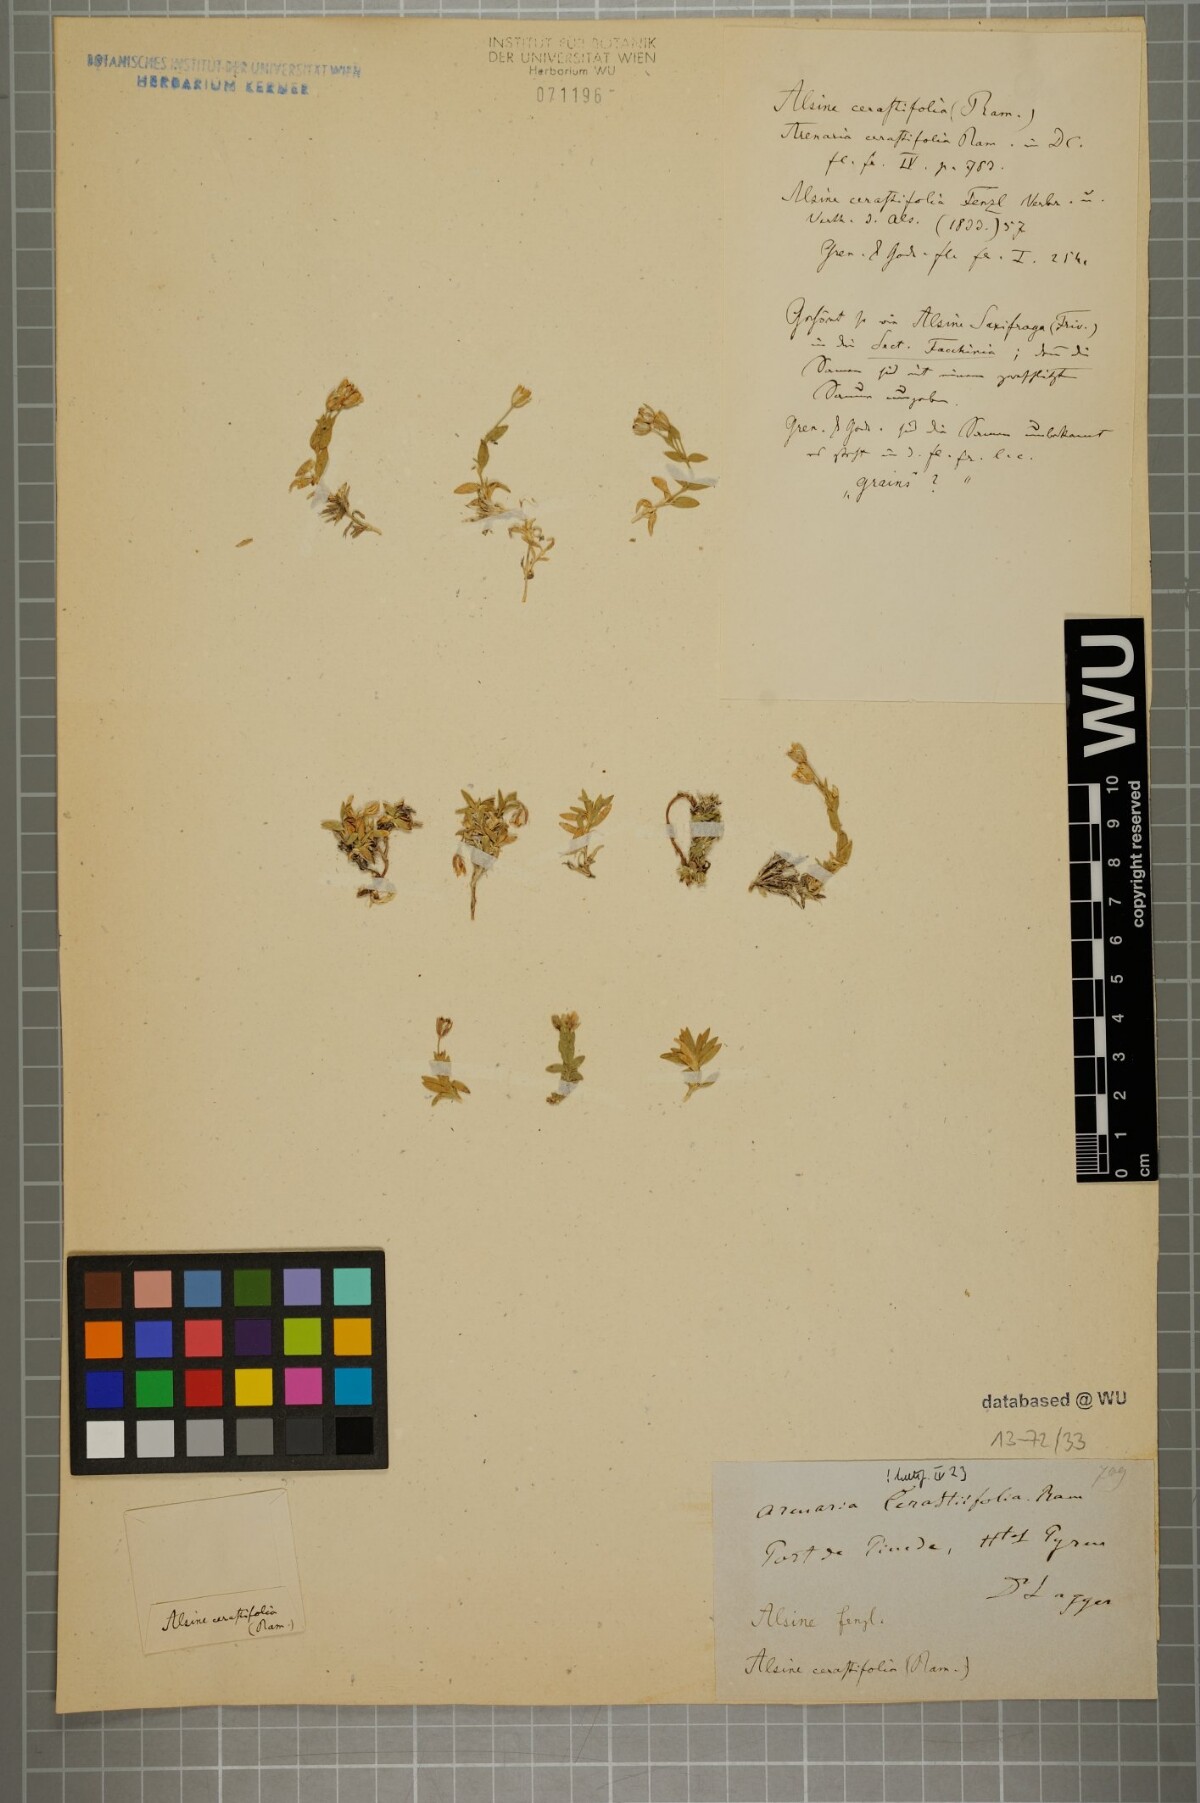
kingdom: Plantae
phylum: Tracheophyta
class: Magnoliopsida
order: Caryophyllales
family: Caryophyllaceae
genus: Facchinia
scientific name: Facchinia cerastiifolia
